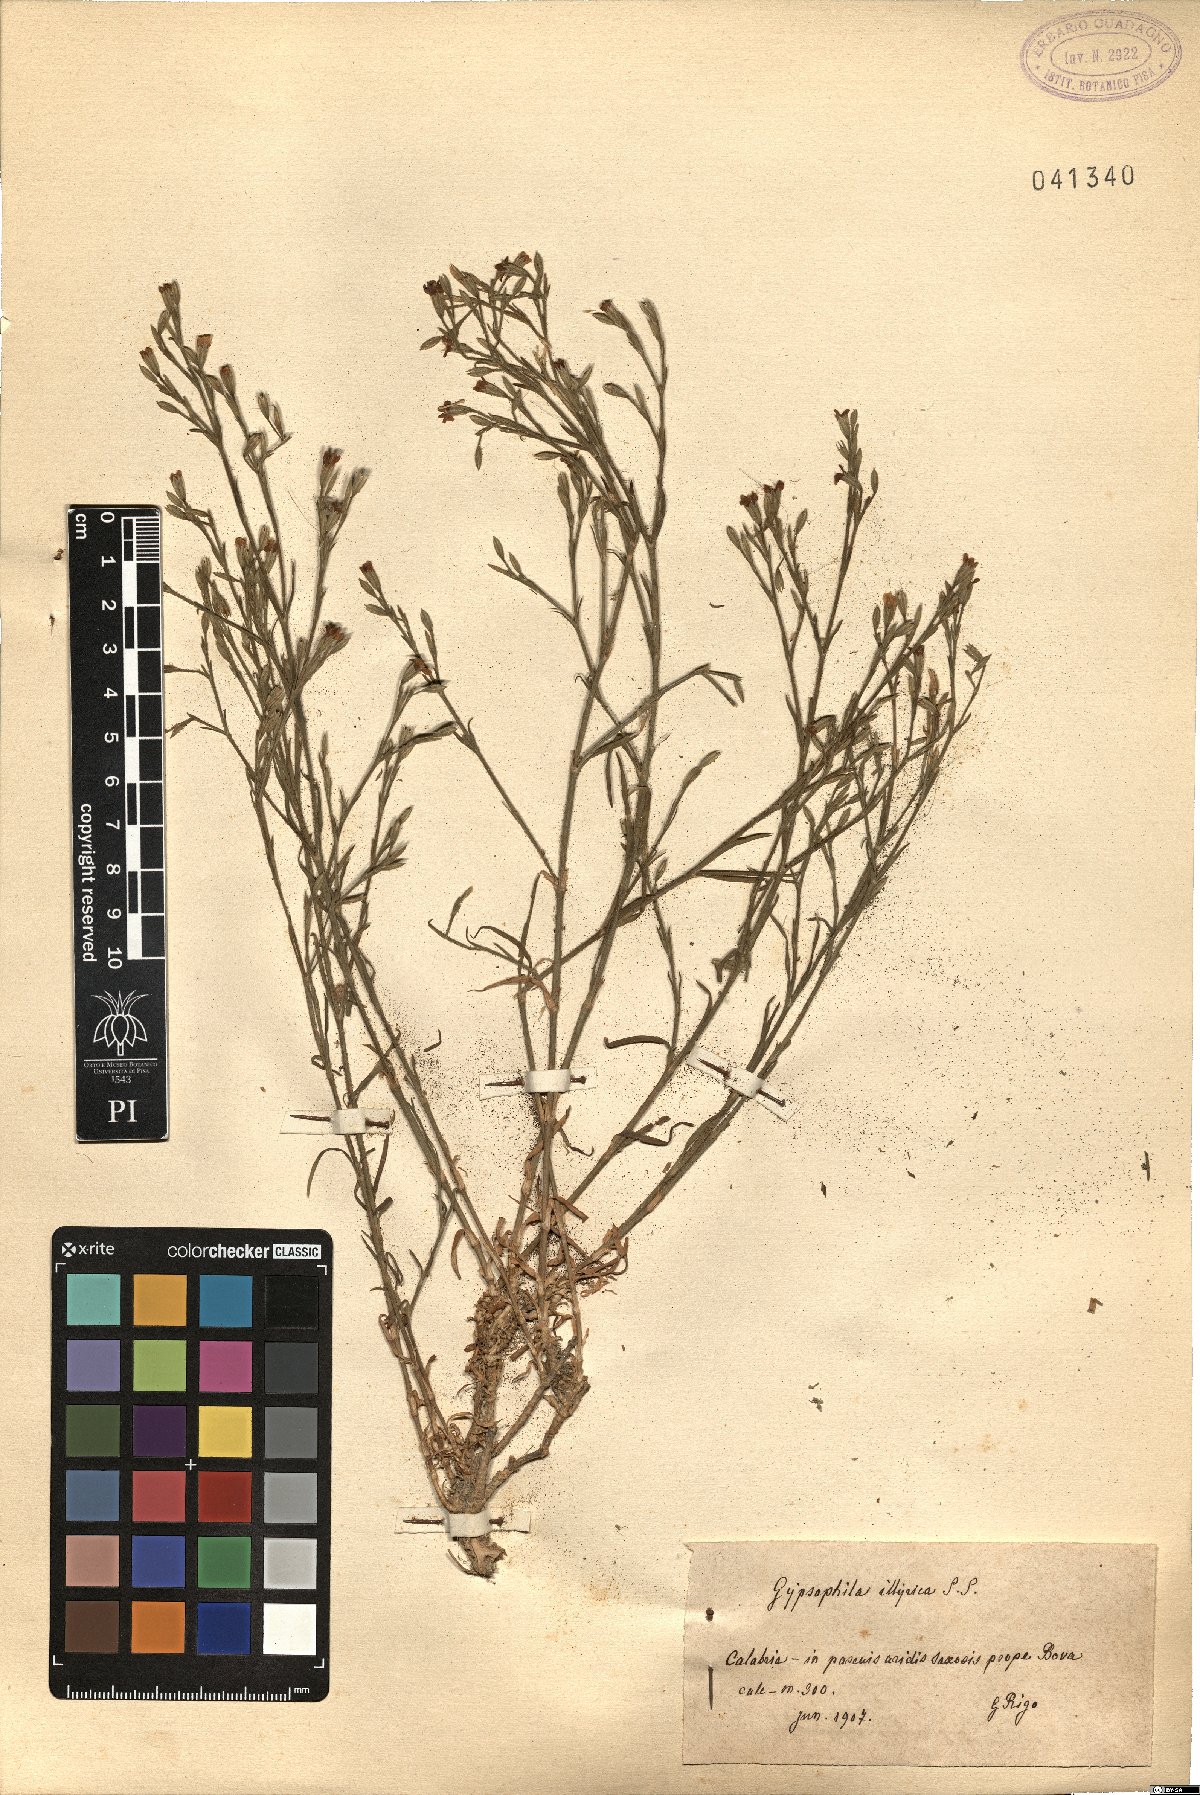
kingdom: Plantae
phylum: Tracheophyta
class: Magnoliopsida
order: Caryophyllales
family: Caryophyllaceae
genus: Dianthus
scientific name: Dianthus
